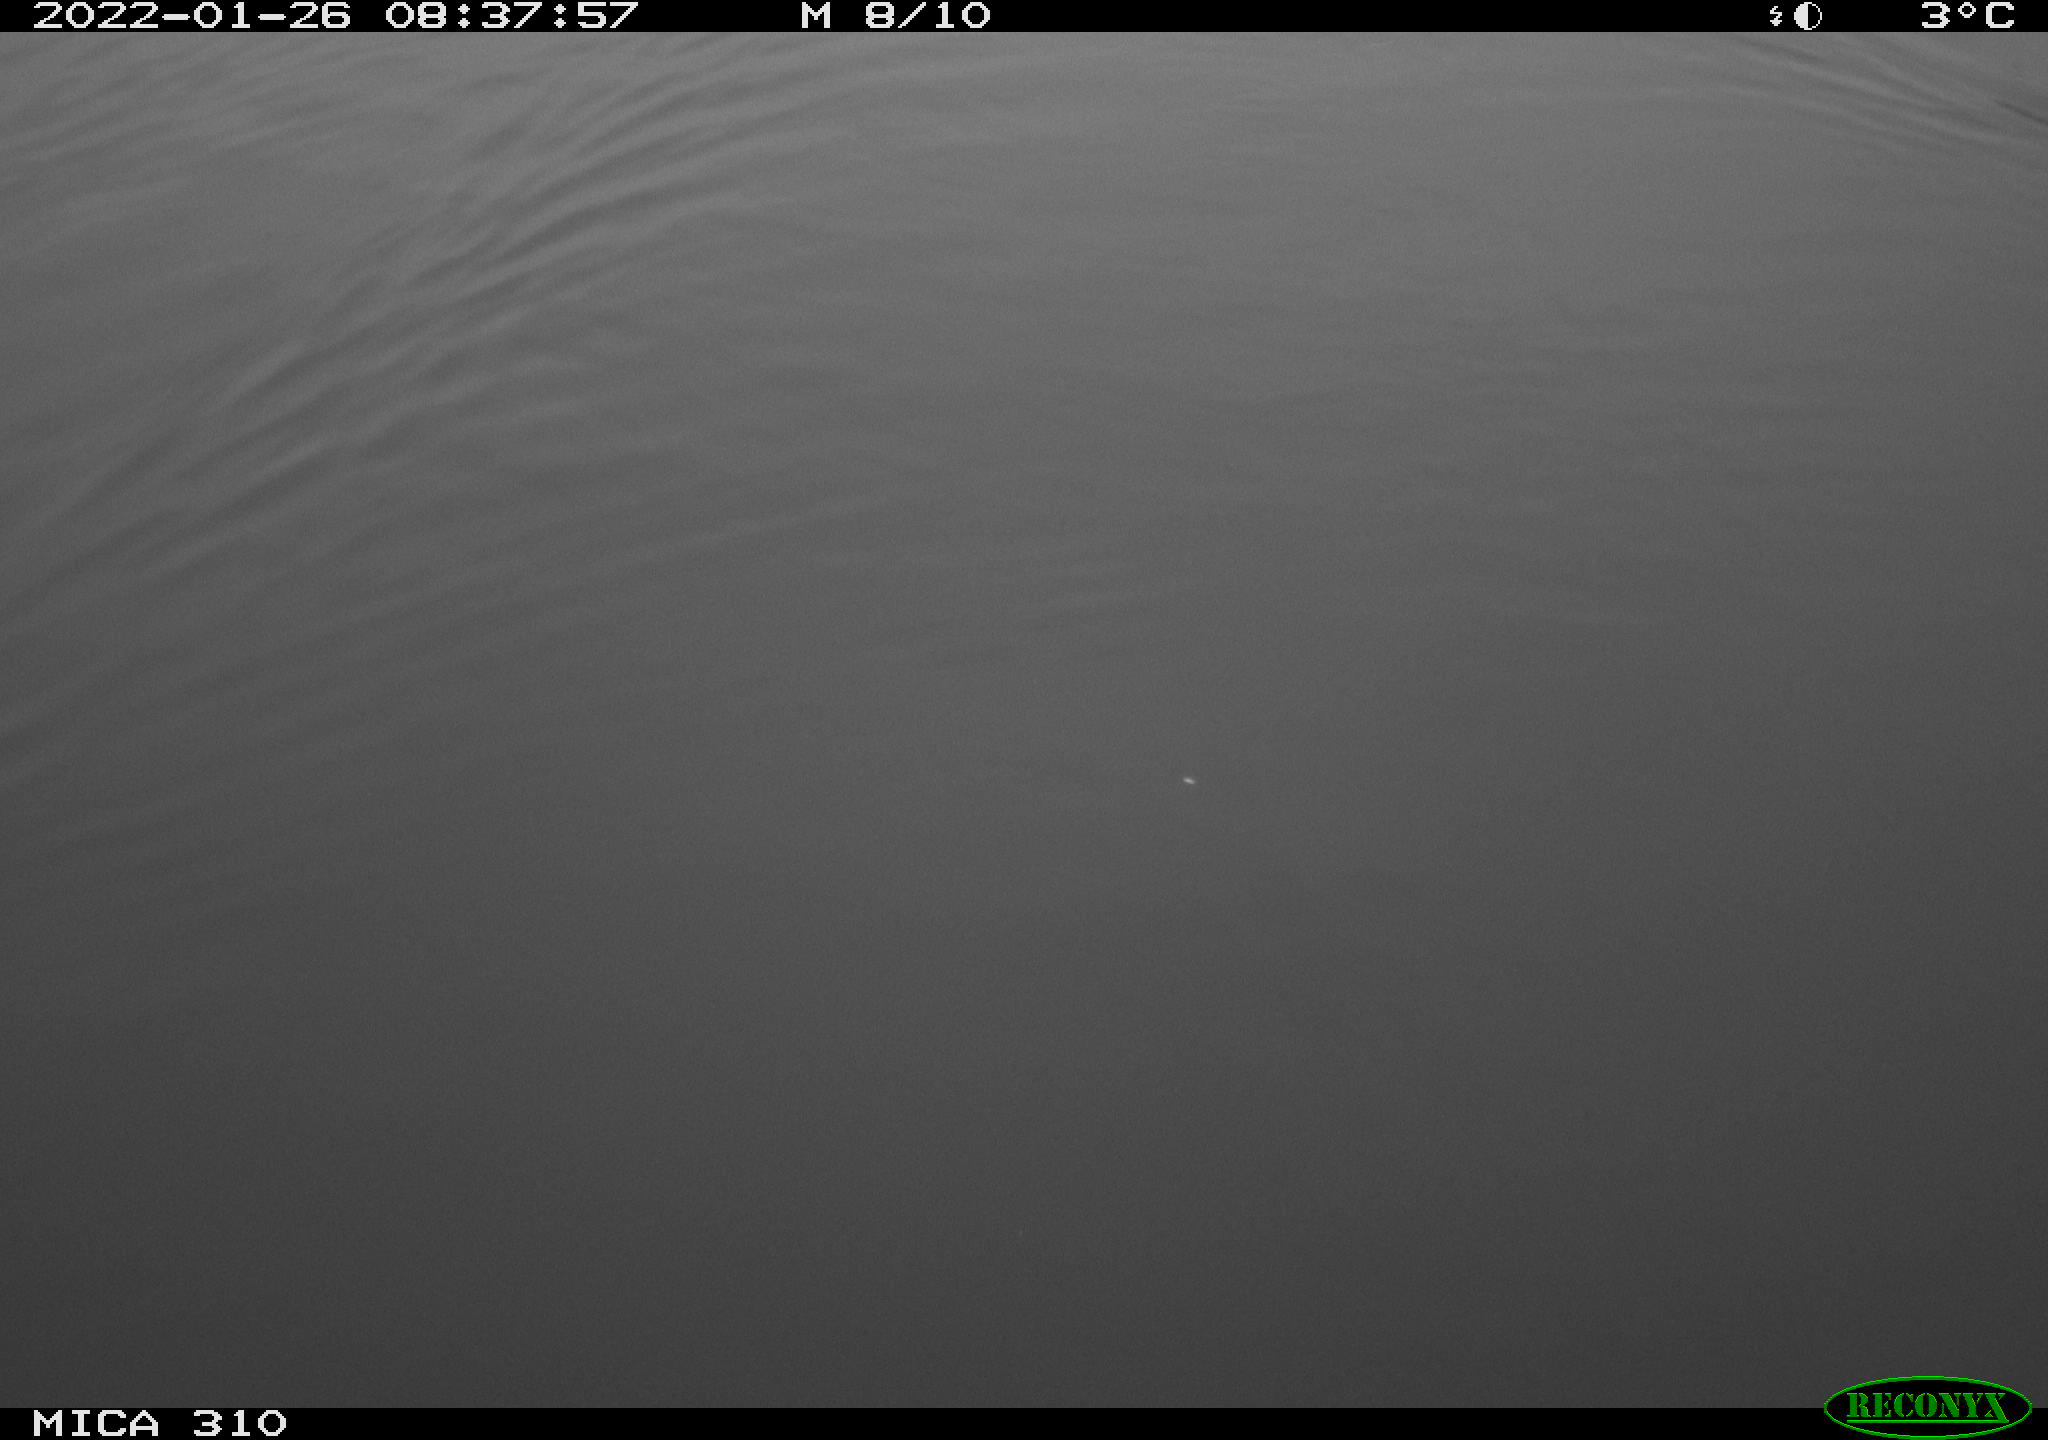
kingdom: Animalia
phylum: Chordata
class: Aves
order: Gruiformes
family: Rallidae
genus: Fulica
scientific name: Fulica atra
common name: Eurasian coot
